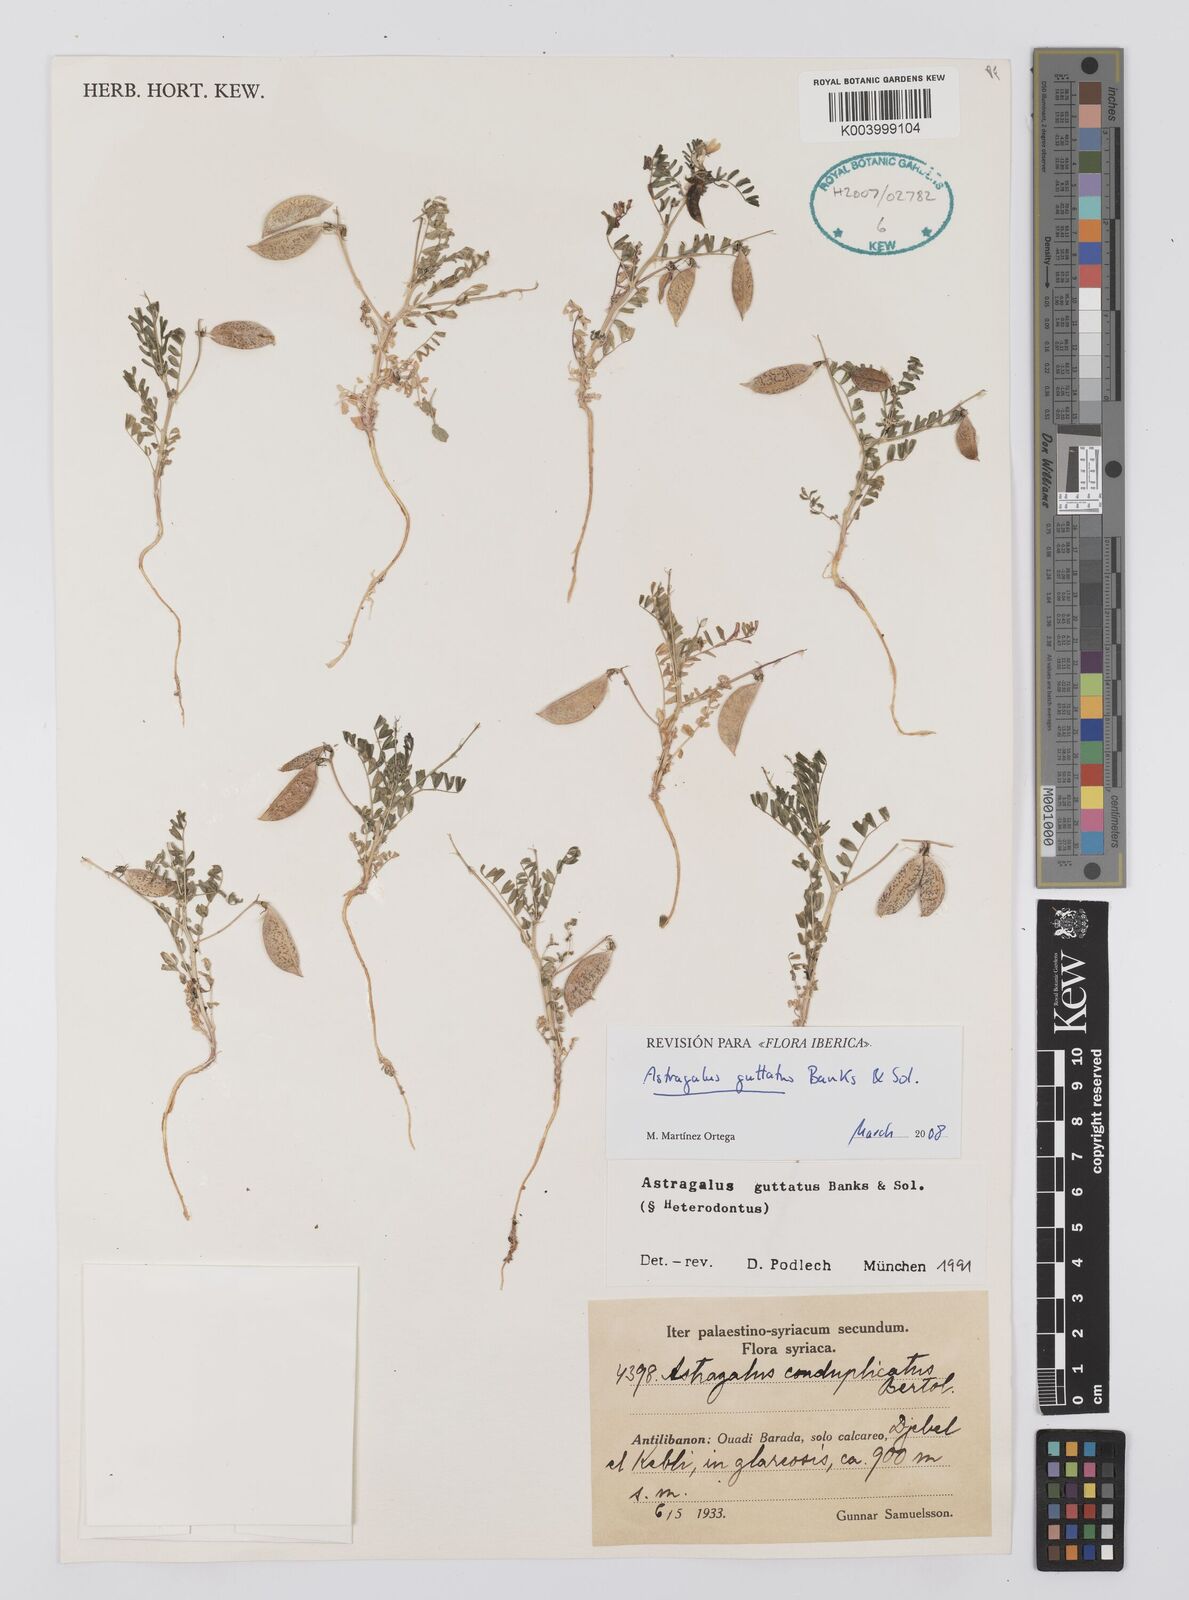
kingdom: Plantae
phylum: Tracheophyta
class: Magnoliopsida
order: Fabales
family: Fabaceae
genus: Astragalus
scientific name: Astragalus guttatus
